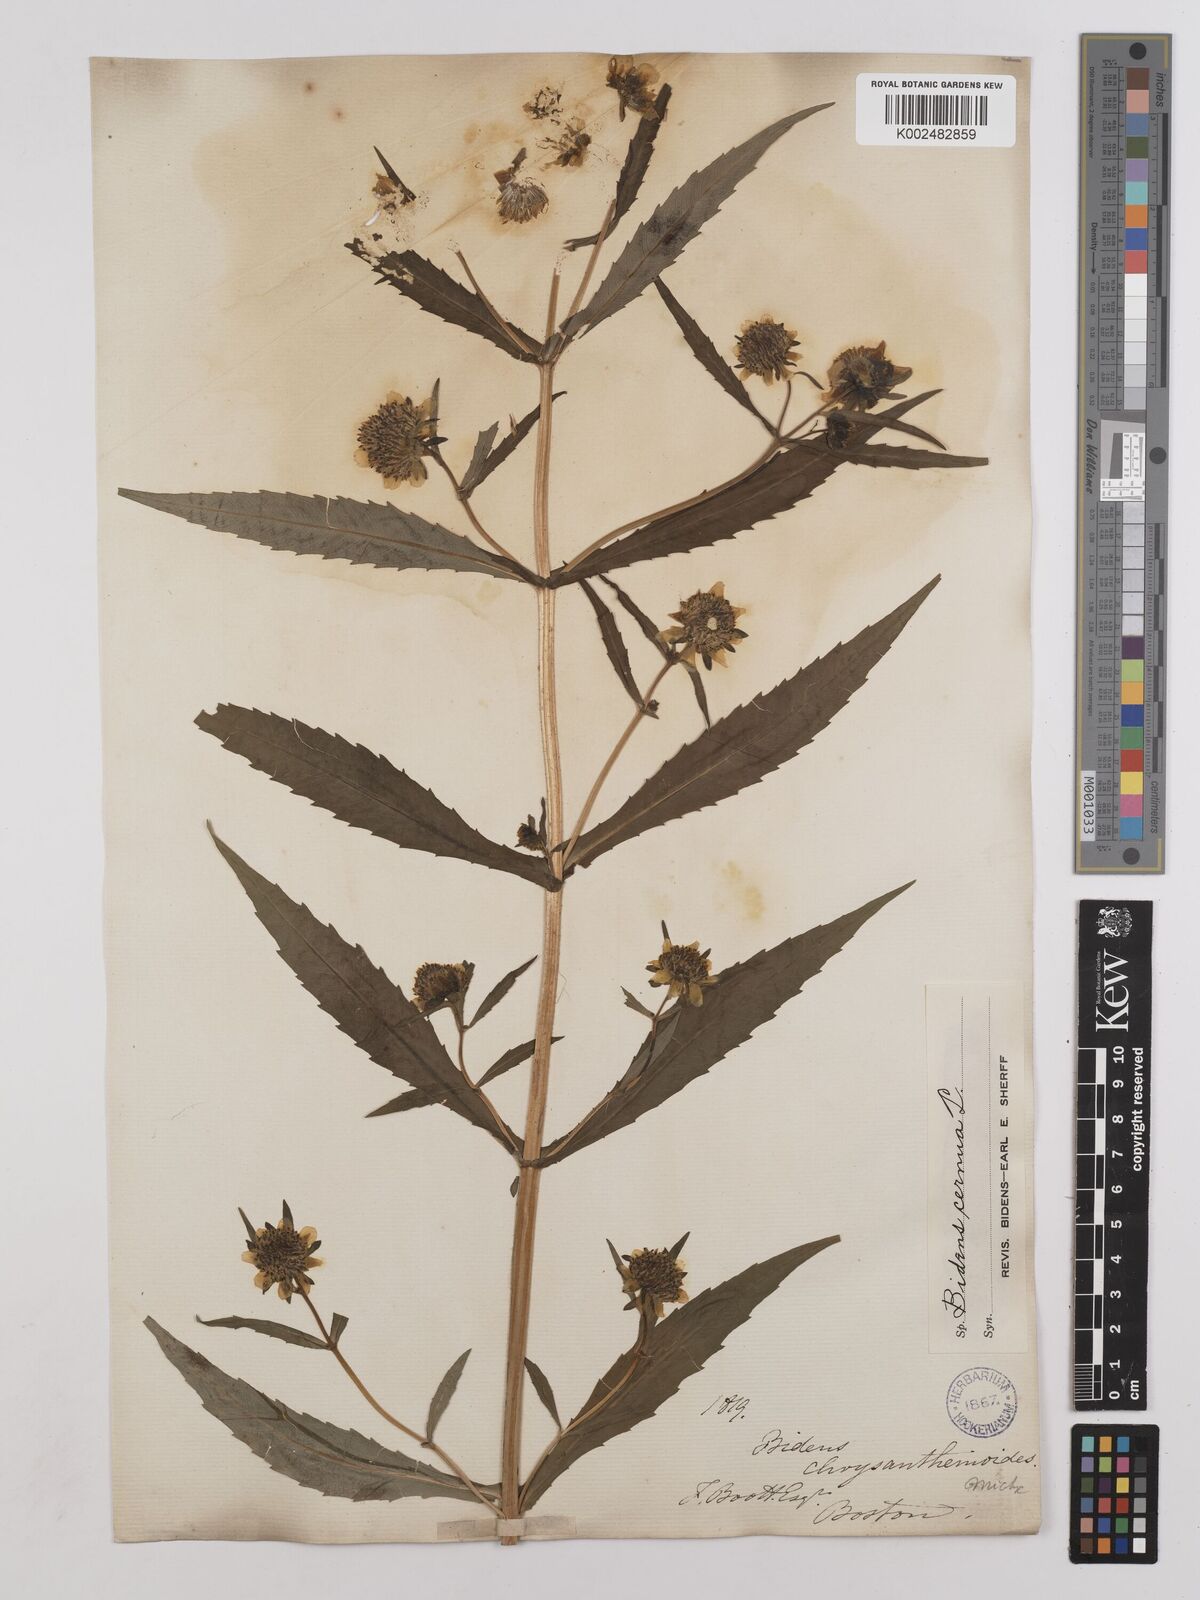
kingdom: Plantae
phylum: Tracheophyta
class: Magnoliopsida
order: Asterales
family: Asteraceae
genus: Bidens
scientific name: Bidens
